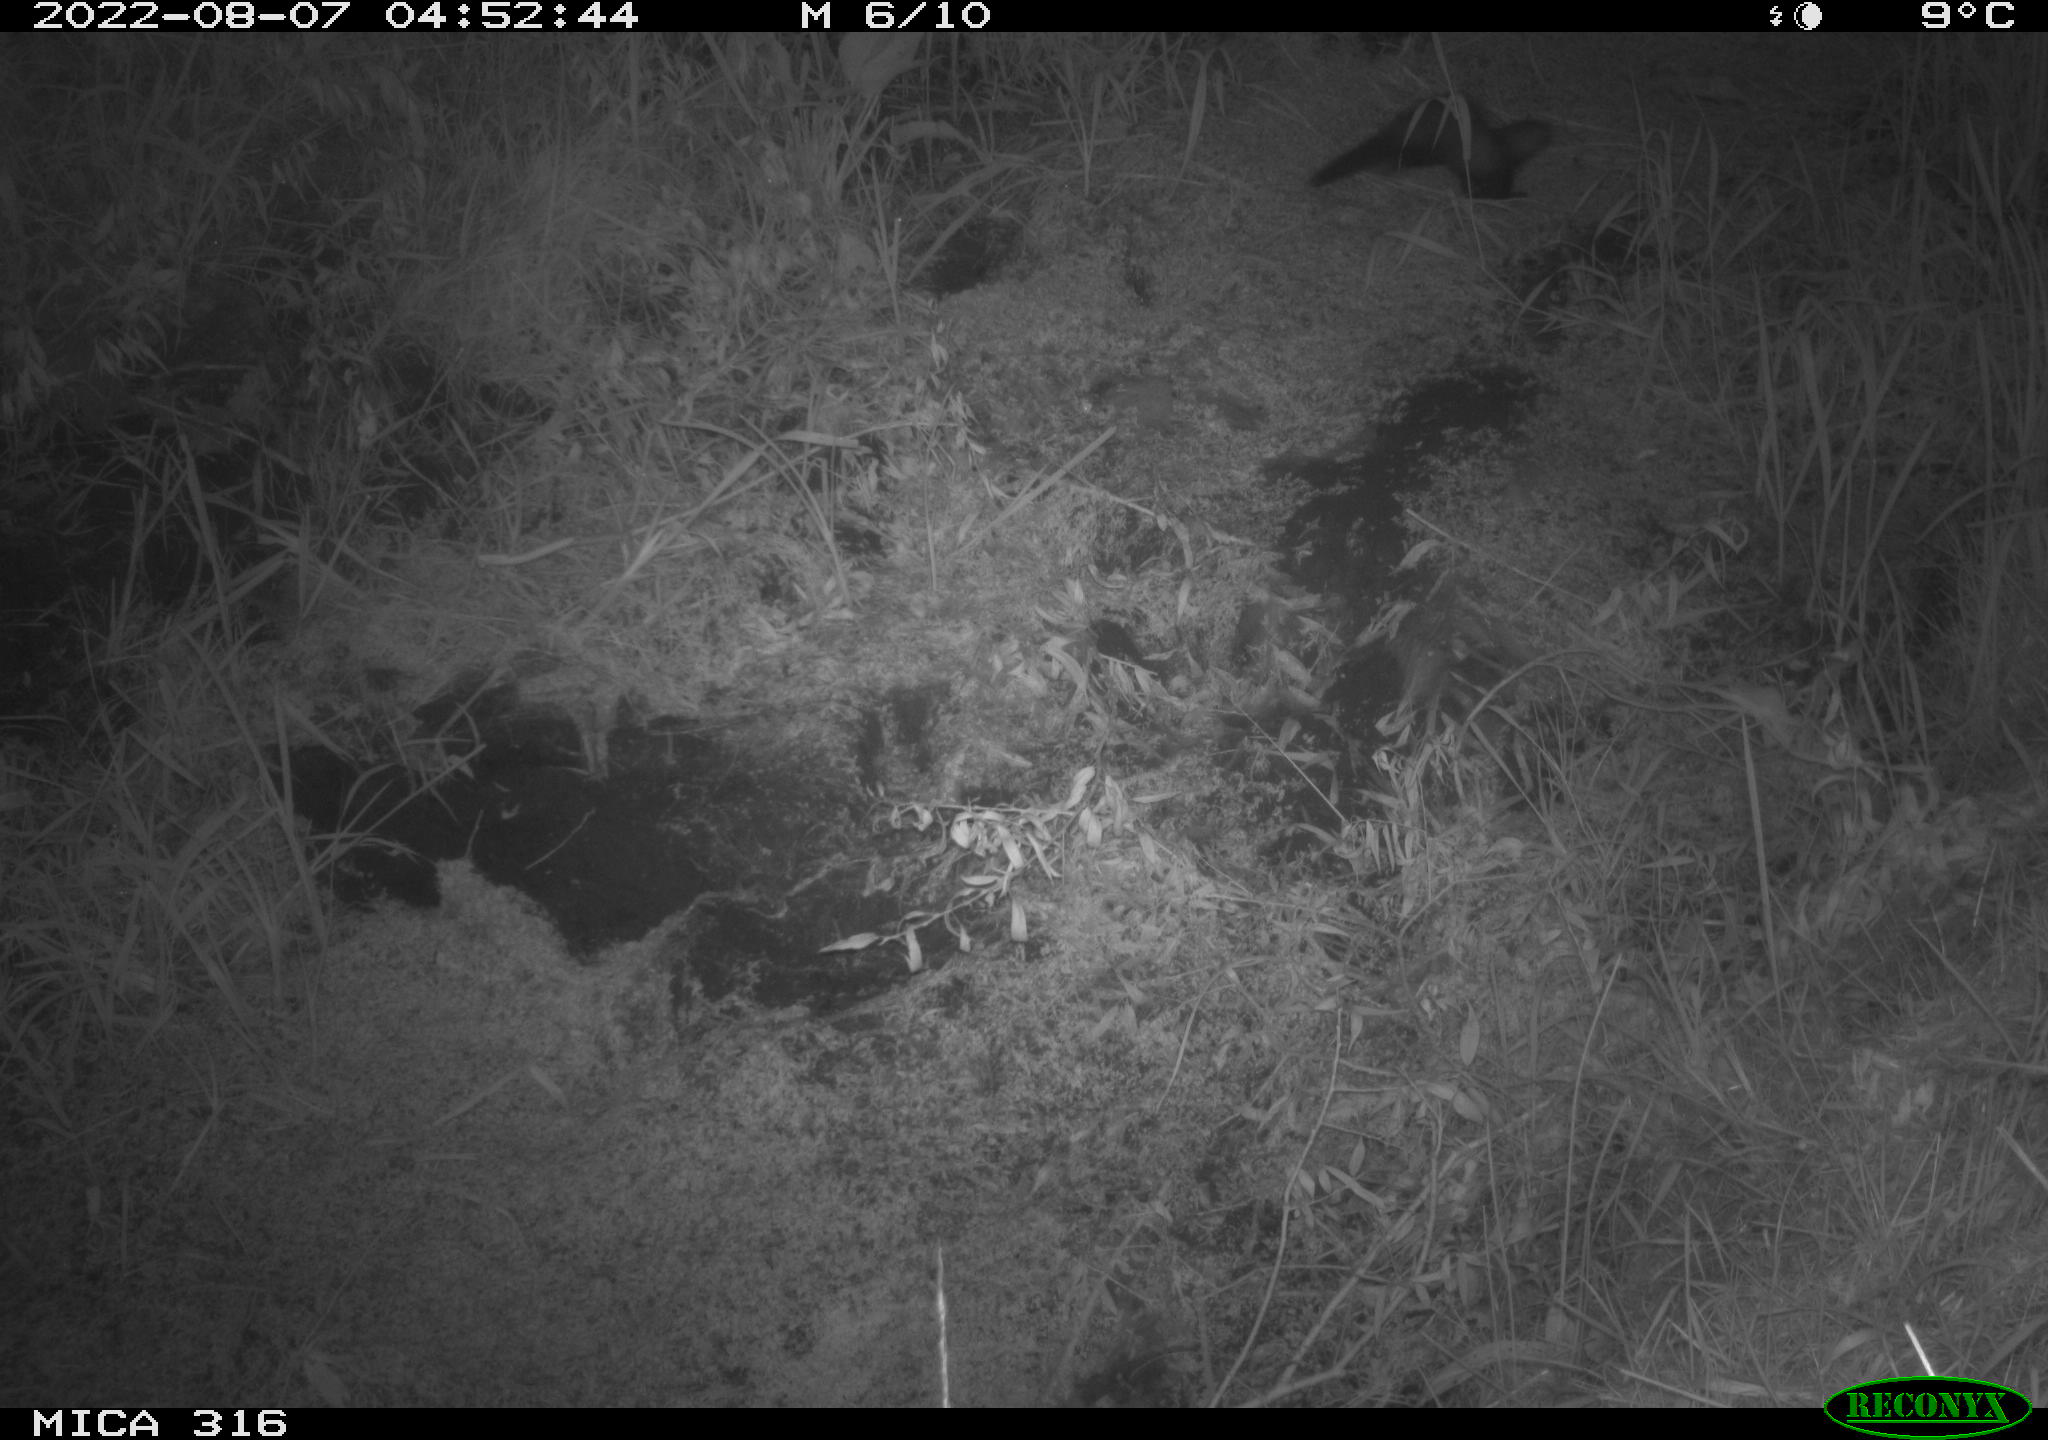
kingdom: Animalia
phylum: Chordata
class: Mammalia
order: Carnivora
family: Mustelidae
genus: Mustela
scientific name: Mustela putorius
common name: European polecat
